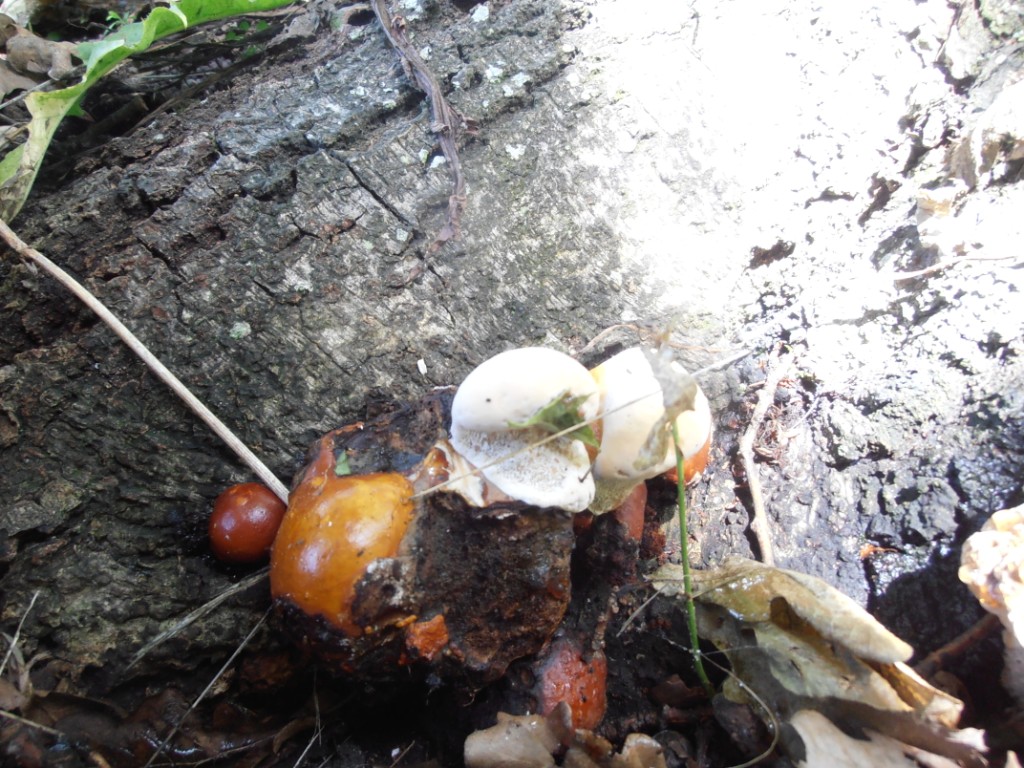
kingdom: Fungi
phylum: Basidiomycota
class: Agaricomycetes
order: Polyporales
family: Polyporaceae
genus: Ganoderma
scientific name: Ganoderma resinaceum
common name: gyldenbrun lakporesvamp
